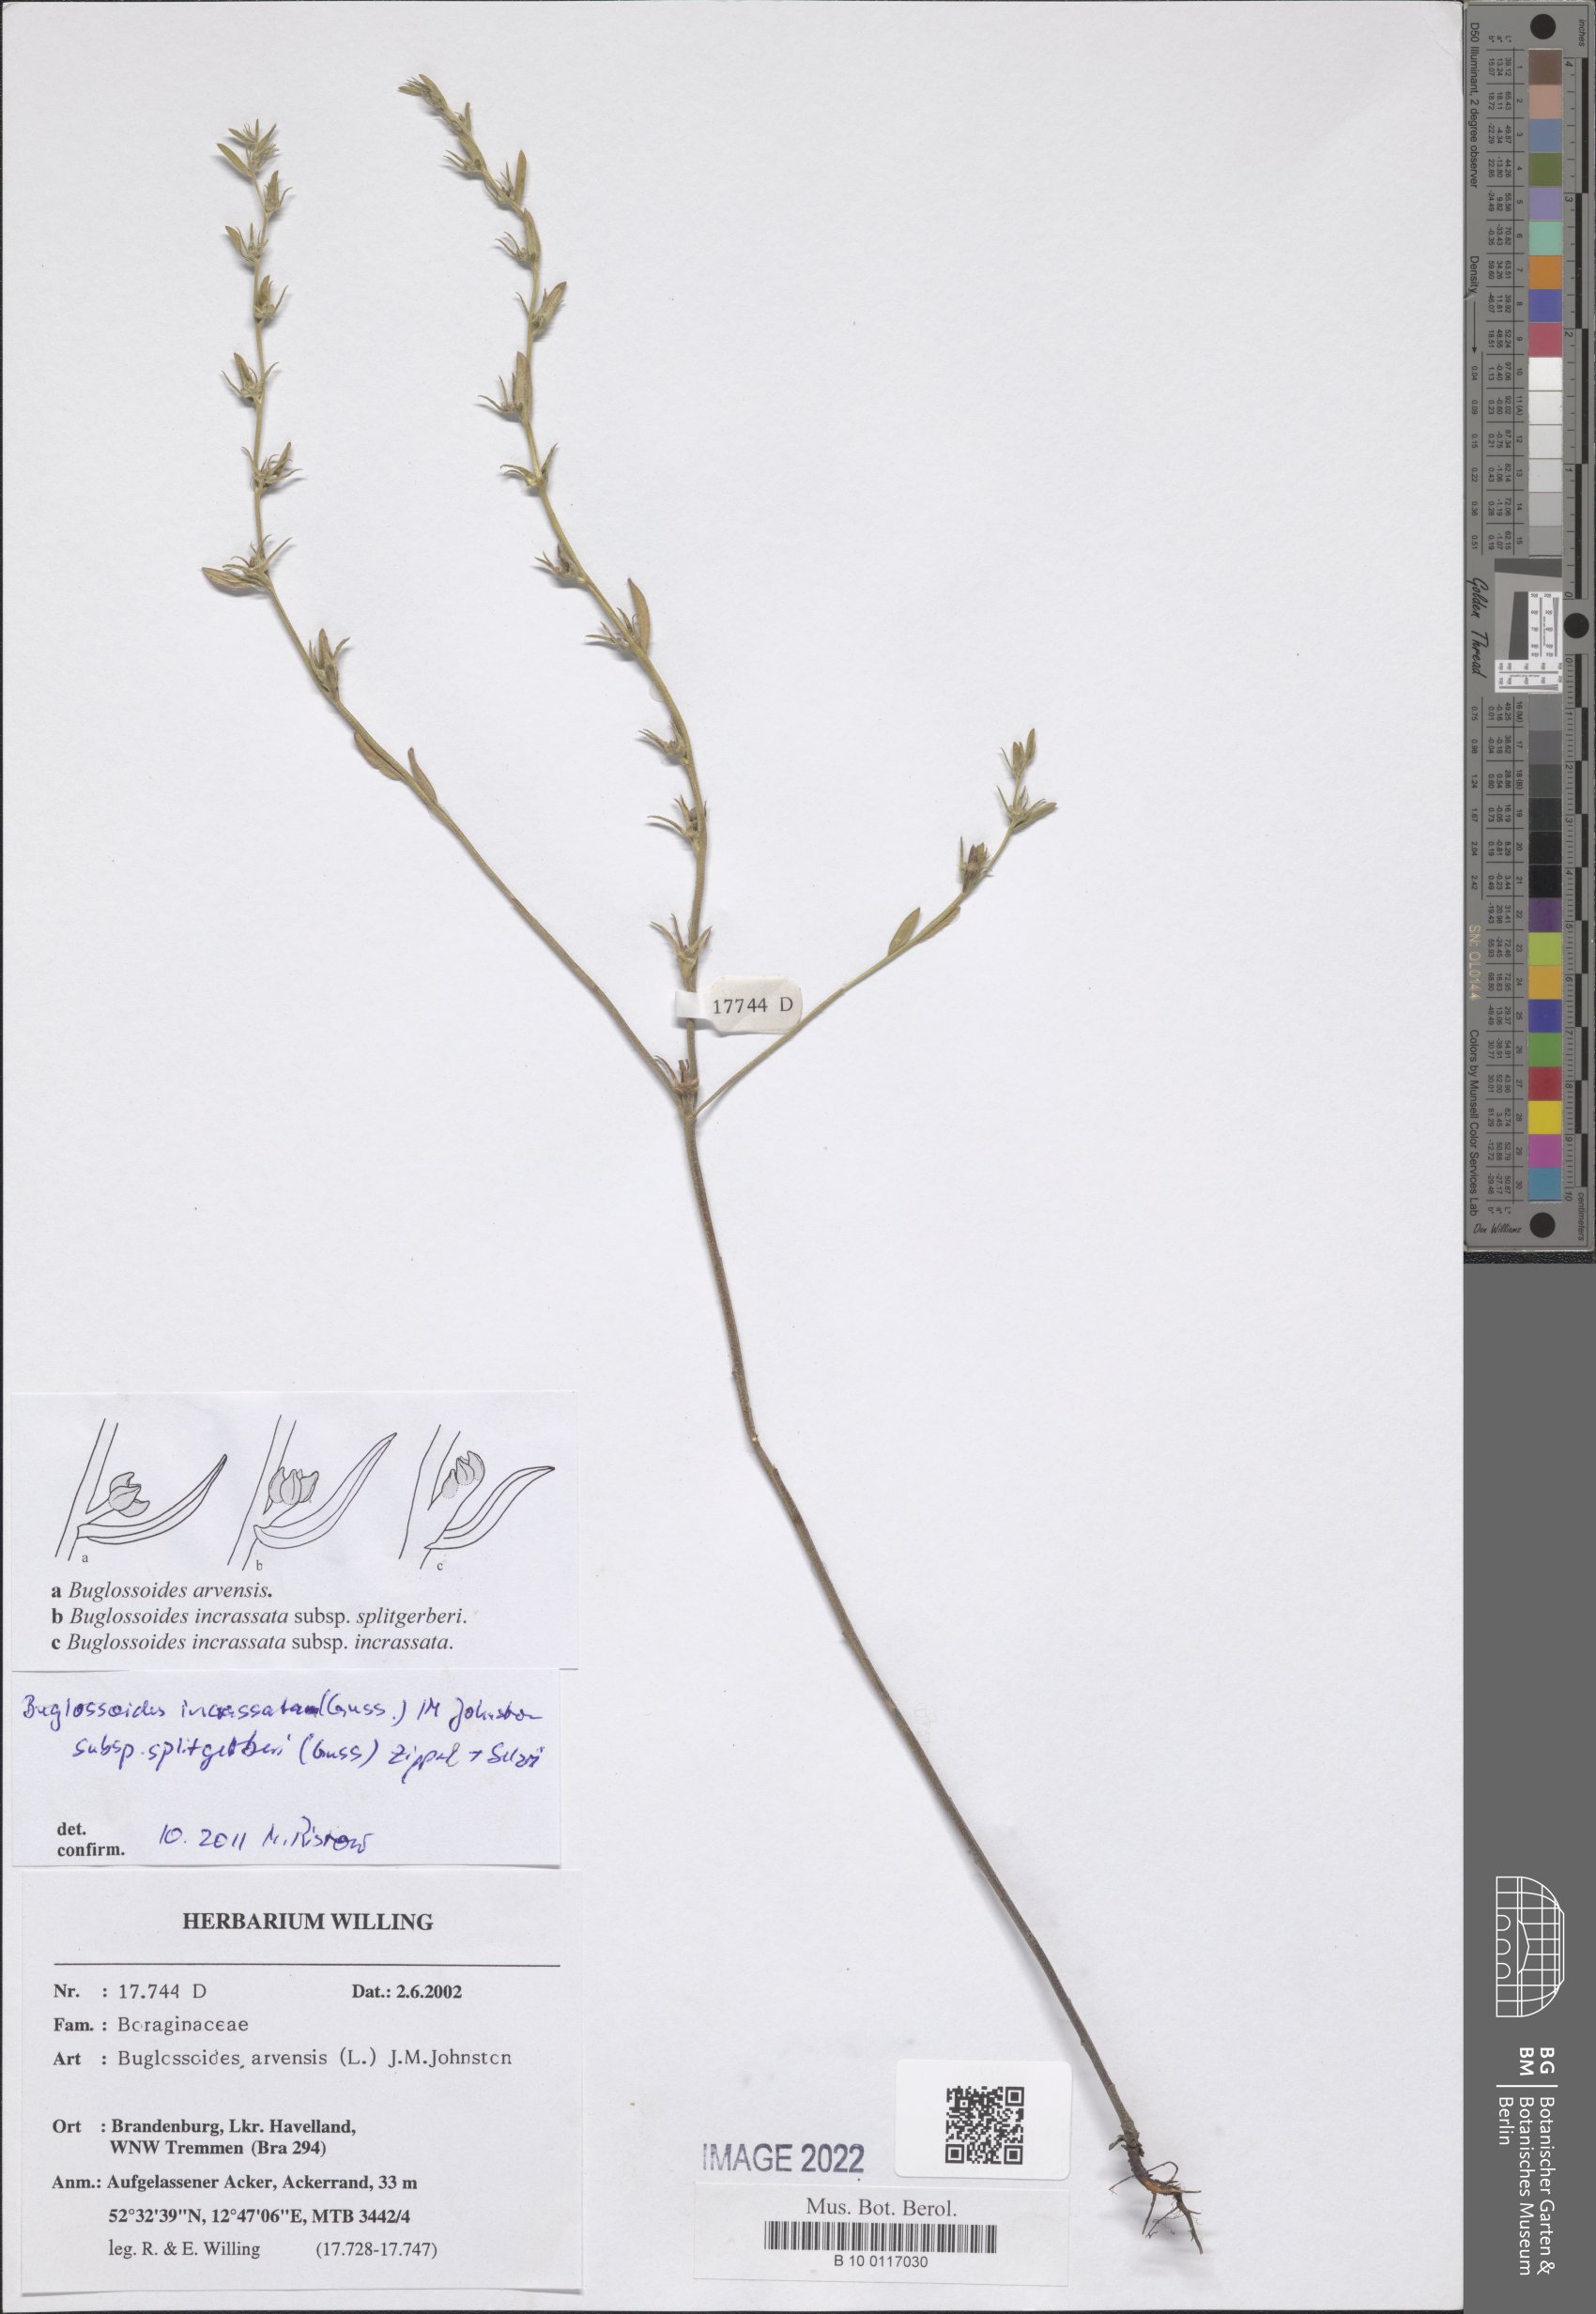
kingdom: Plantae
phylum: Tracheophyta
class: Magnoliopsida
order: Boraginales
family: Boraginaceae
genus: Buglossoides
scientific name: Buglossoides incrassata
